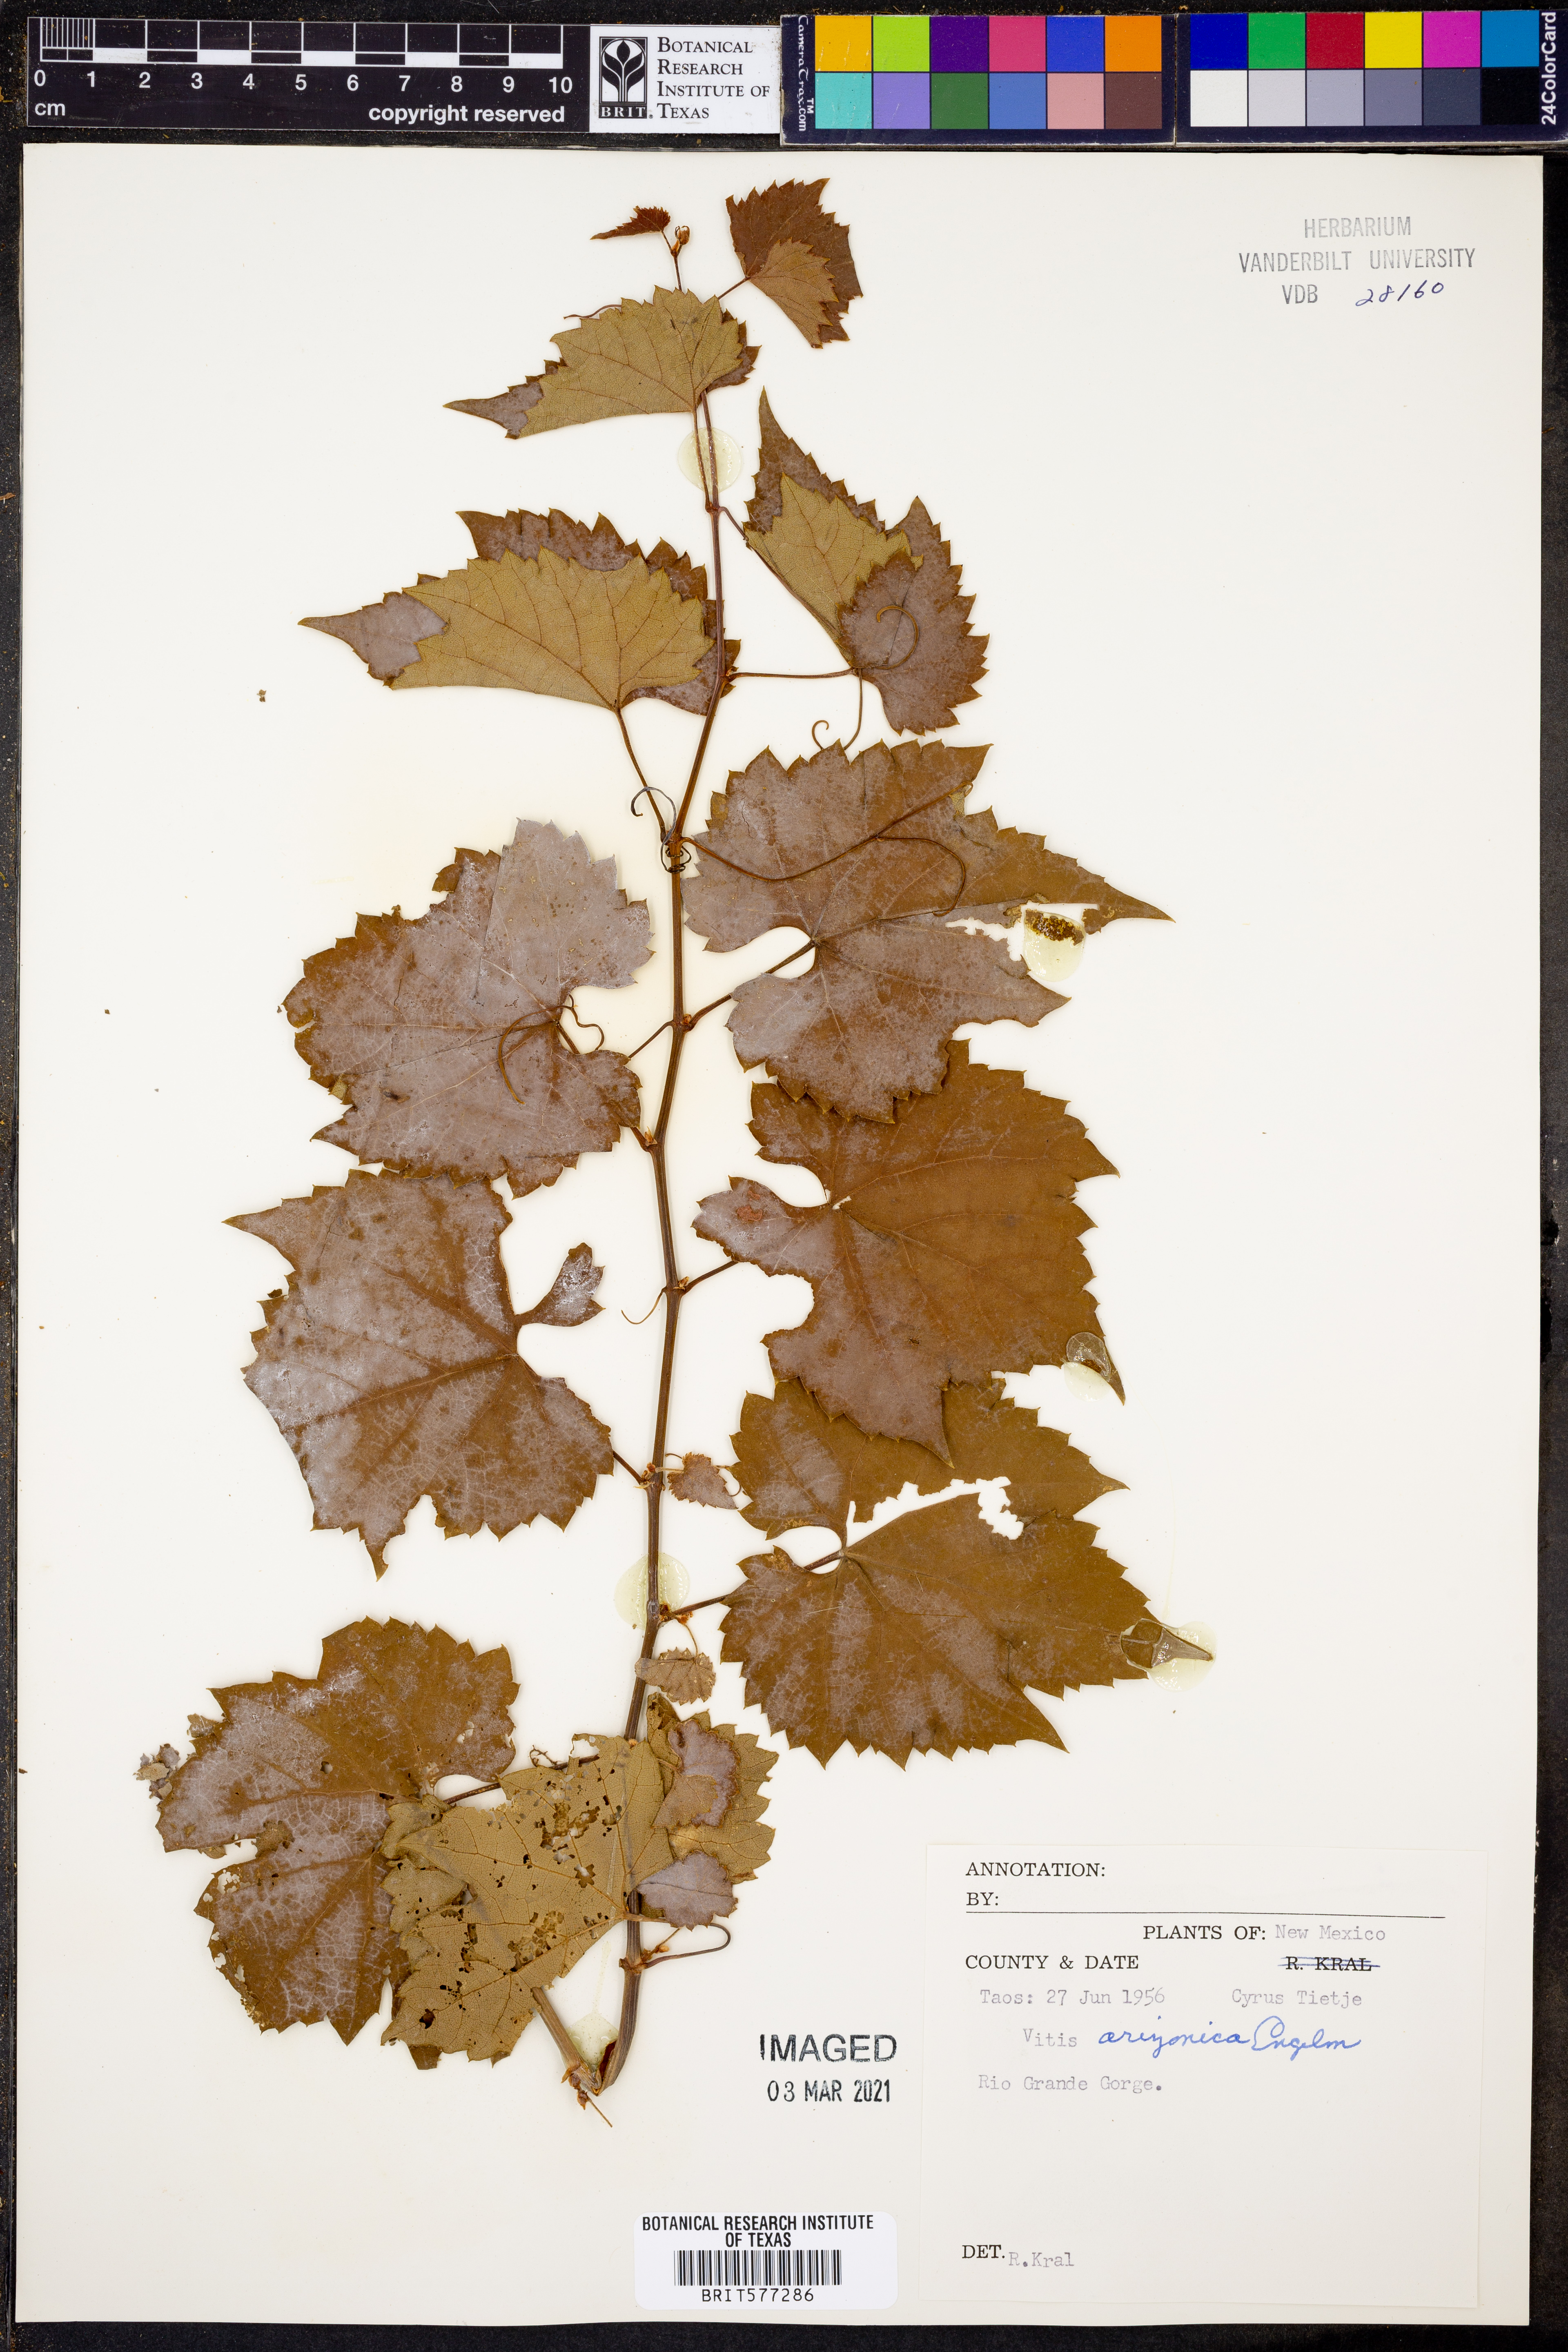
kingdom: Plantae
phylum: Tracheophyta
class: Magnoliopsida
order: Vitales
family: Vitaceae
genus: Vitis
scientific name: Vitis arizonica
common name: Canyon grape
